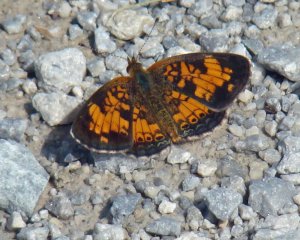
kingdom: Animalia
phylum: Arthropoda
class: Insecta
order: Lepidoptera
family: Nymphalidae
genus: Phyciodes
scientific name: Phyciodes tharos
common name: Pearl Crescent
